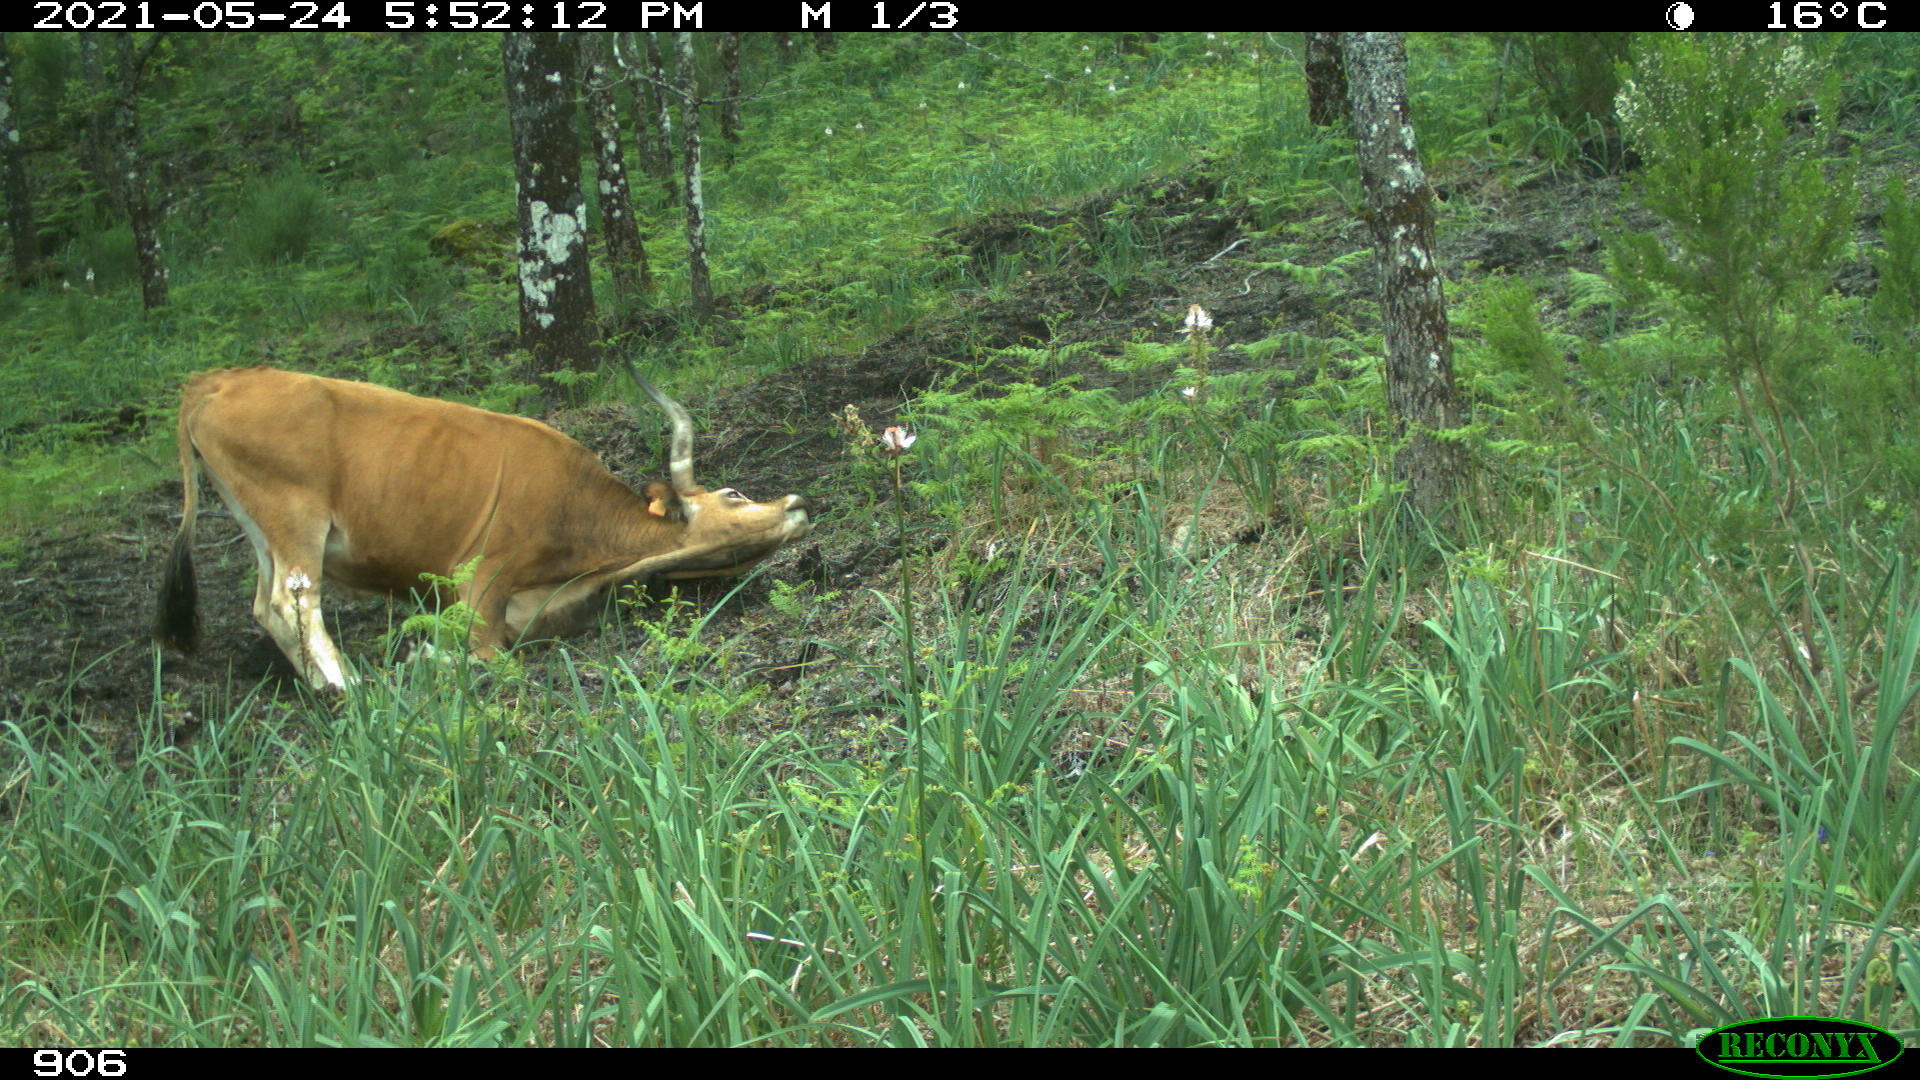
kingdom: Animalia
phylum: Chordata
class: Mammalia
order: Artiodactyla
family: Bovidae
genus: Bos
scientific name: Bos taurus
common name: Domesticated cattle
